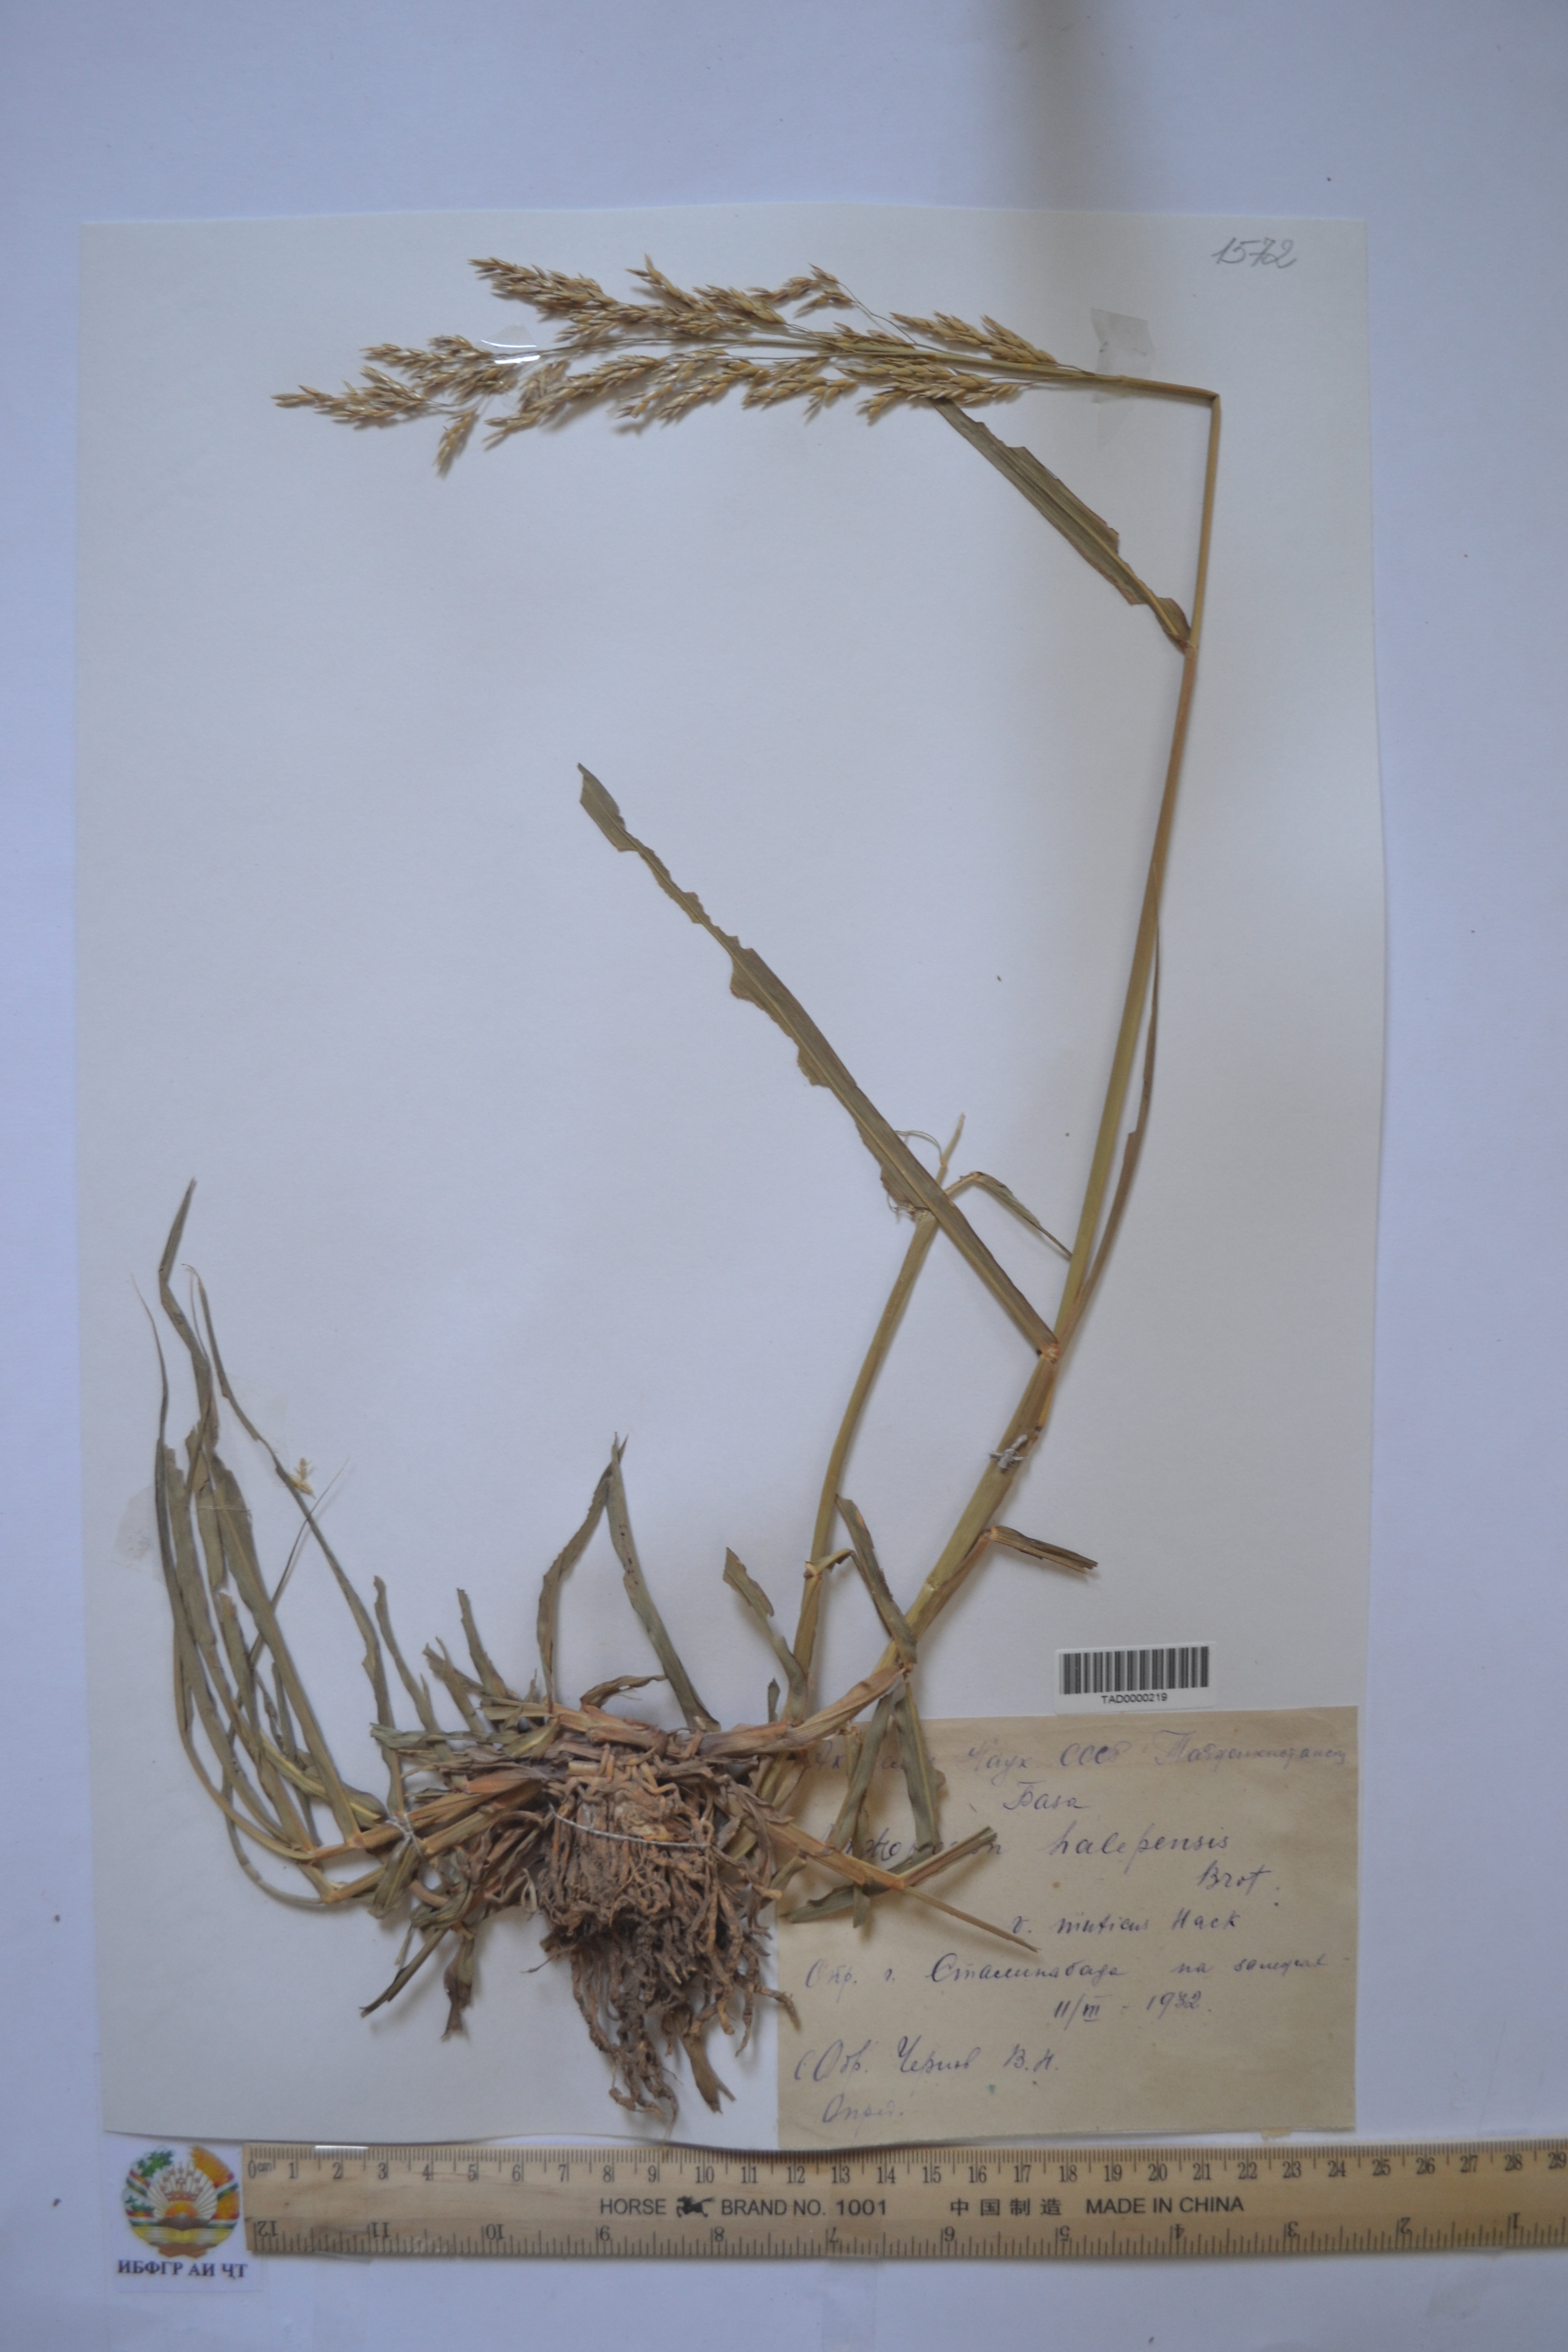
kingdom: Plantae
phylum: Tracheophyta
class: Liliopsida
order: Poales
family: Poaceae
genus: Sorghum
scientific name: Sorghum halepense
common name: Johnson-grass
